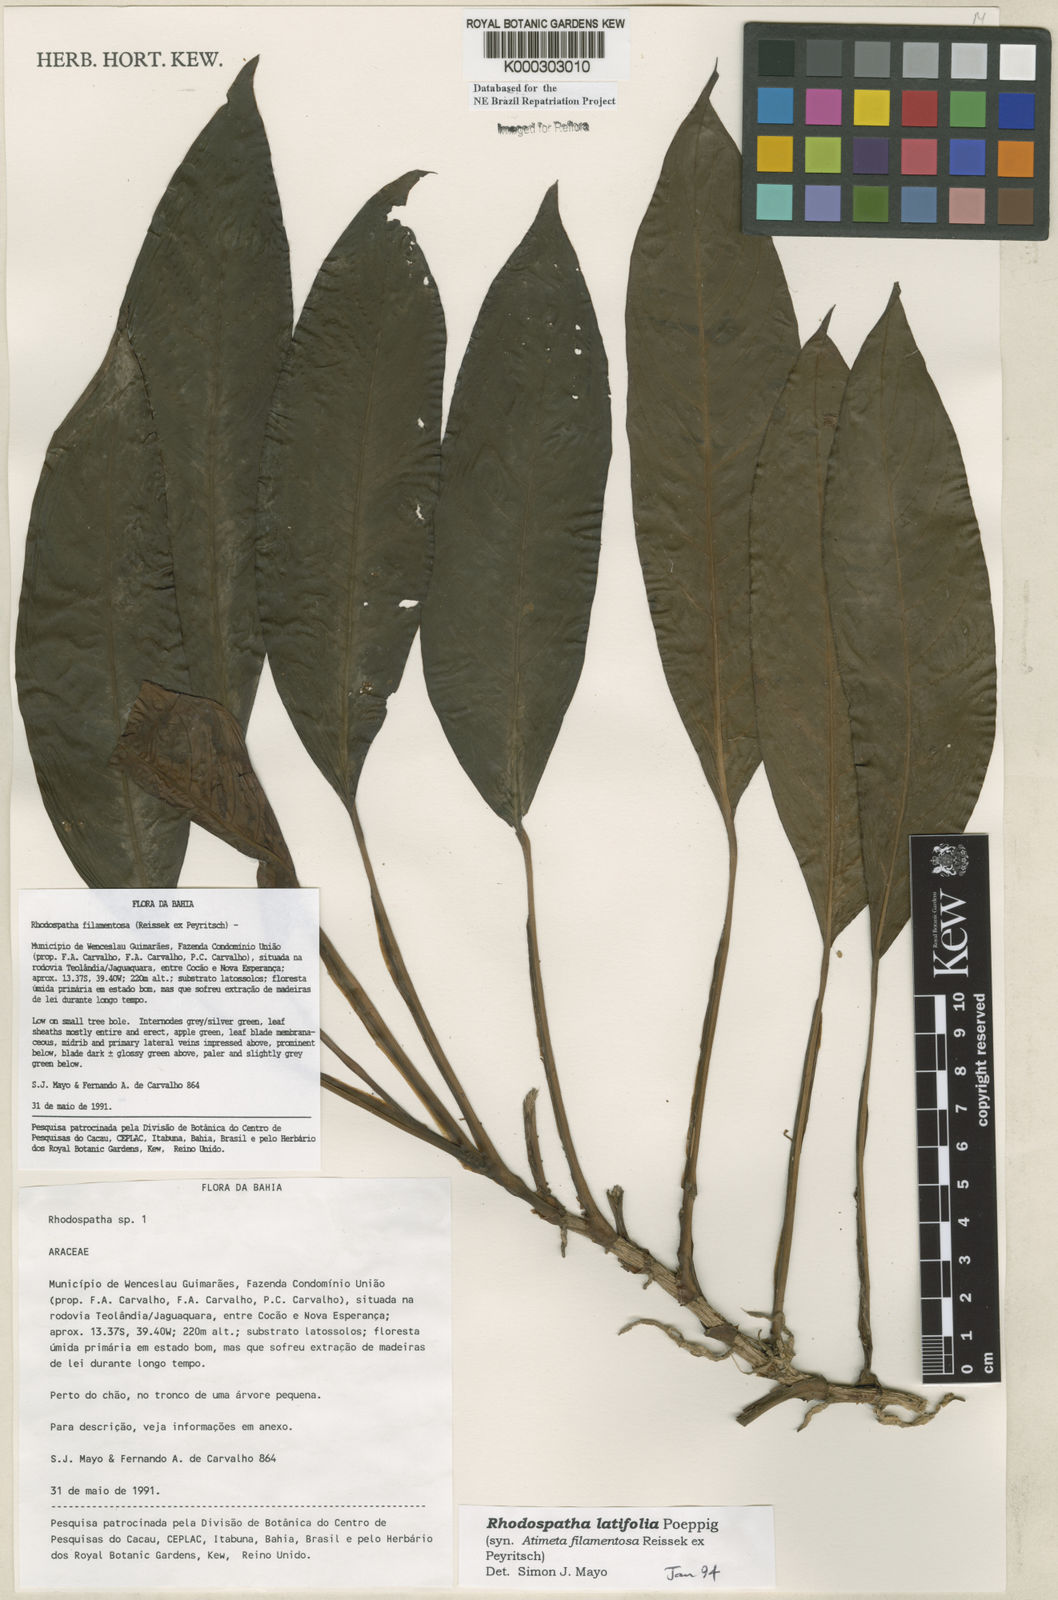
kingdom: Plantae
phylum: Tracheophyta
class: Liliopsida
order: Alismatales
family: Araceae
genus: Rhodospatha
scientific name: Rhodospatha latifolia
